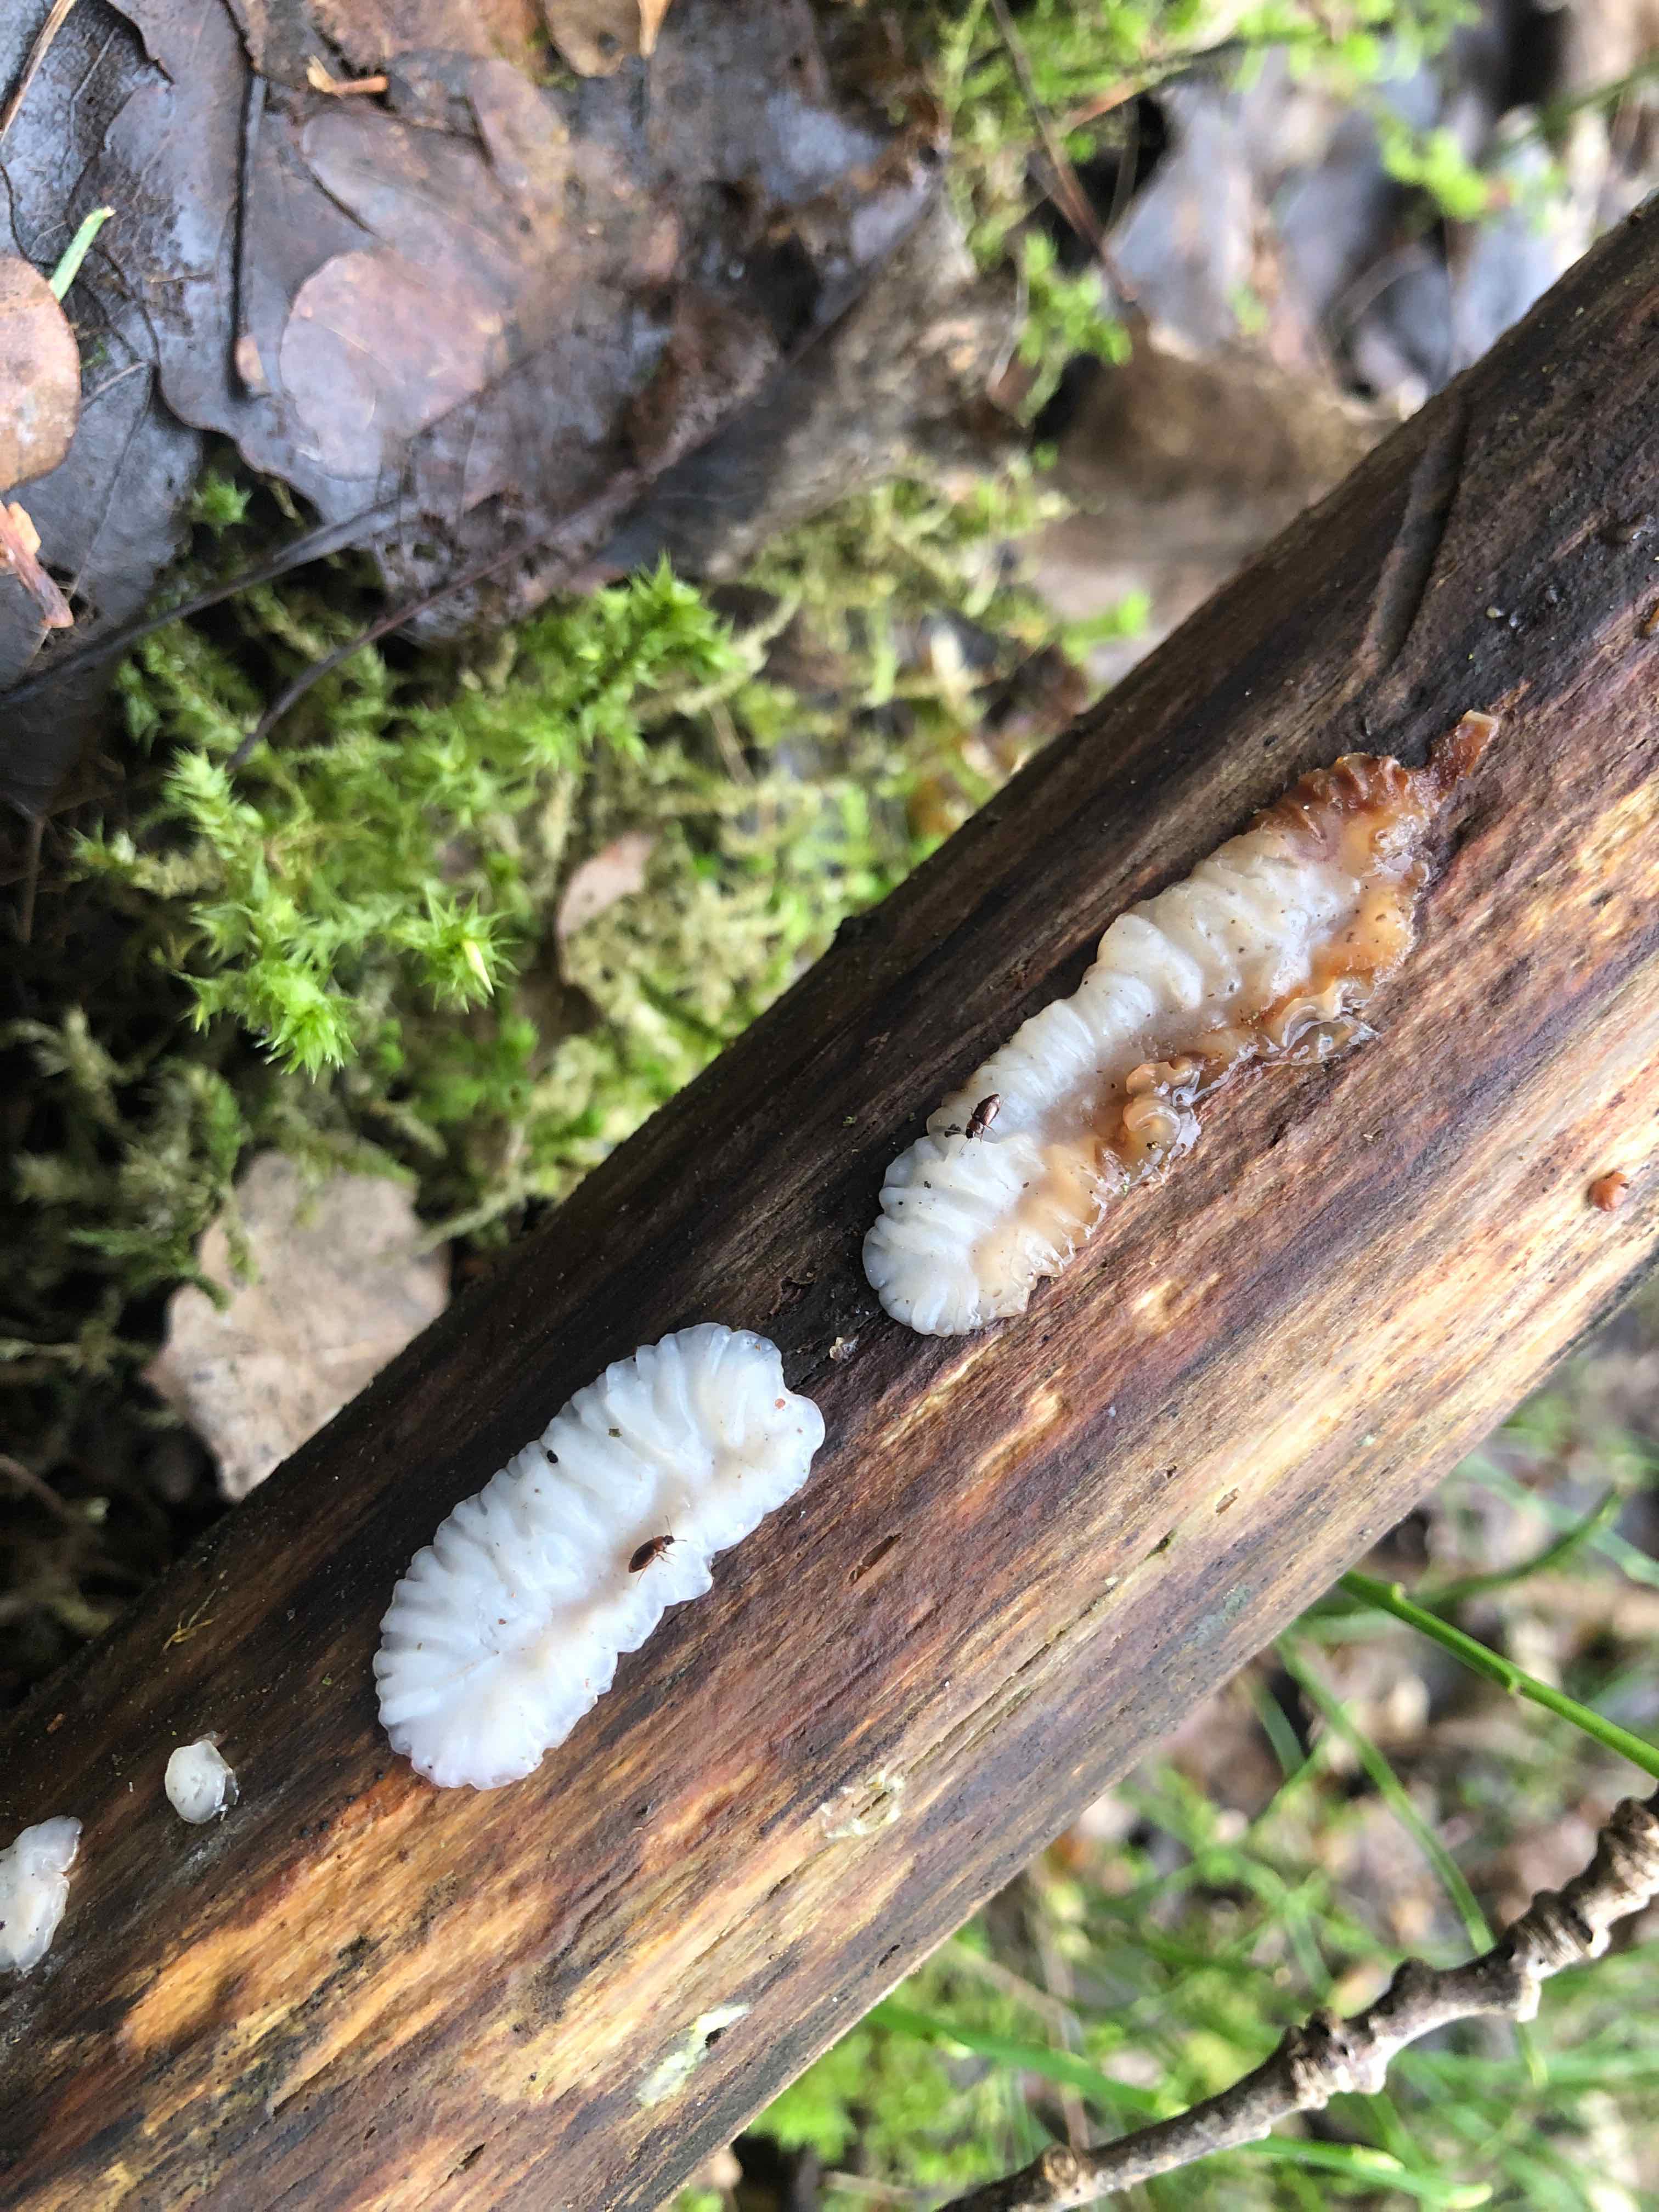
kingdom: Fungi
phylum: Basidiomycota
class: Agaricomycetes
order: Auriculariales
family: Auriculariaceae
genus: Exidia
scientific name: Exidia thuretiana
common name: hvidlig bævretop
